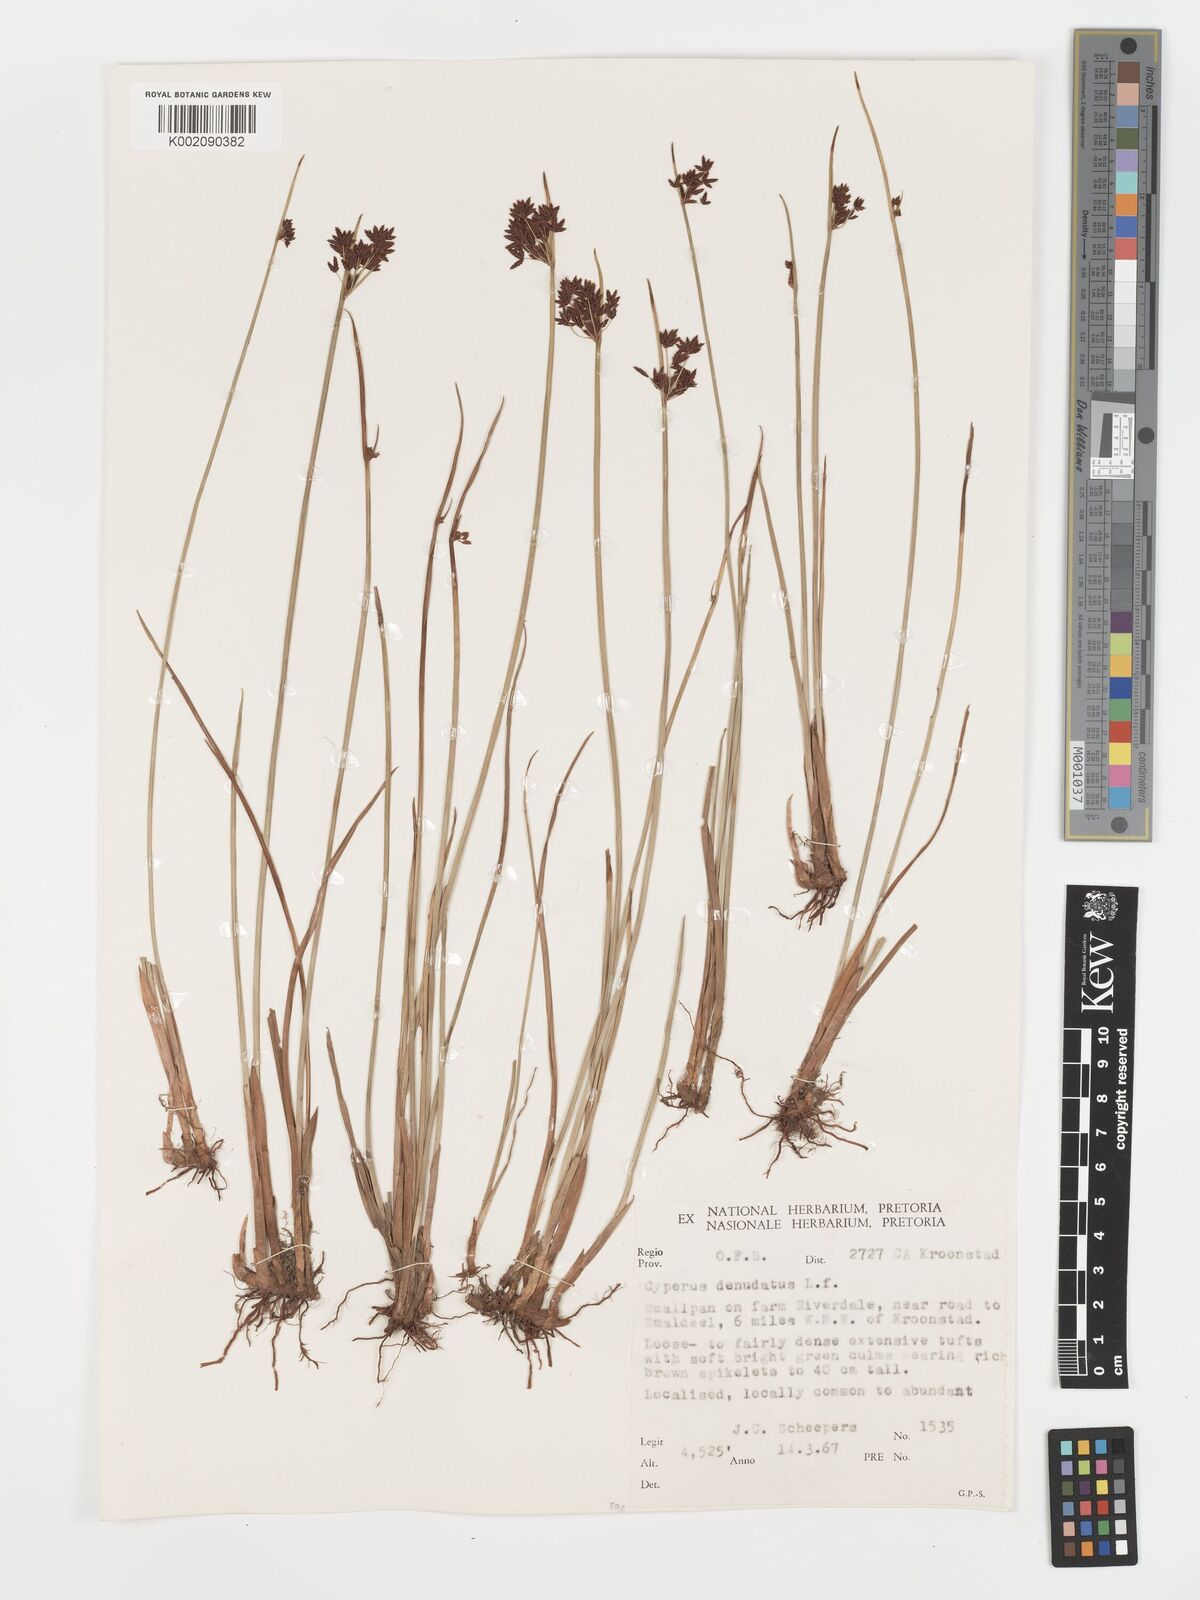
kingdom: Plantae
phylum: Tracheophyta
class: Liliopsida
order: Poales
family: Cyperaceae
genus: Cyperus
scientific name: Cyperus haspan
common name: Haspan flatsedge
